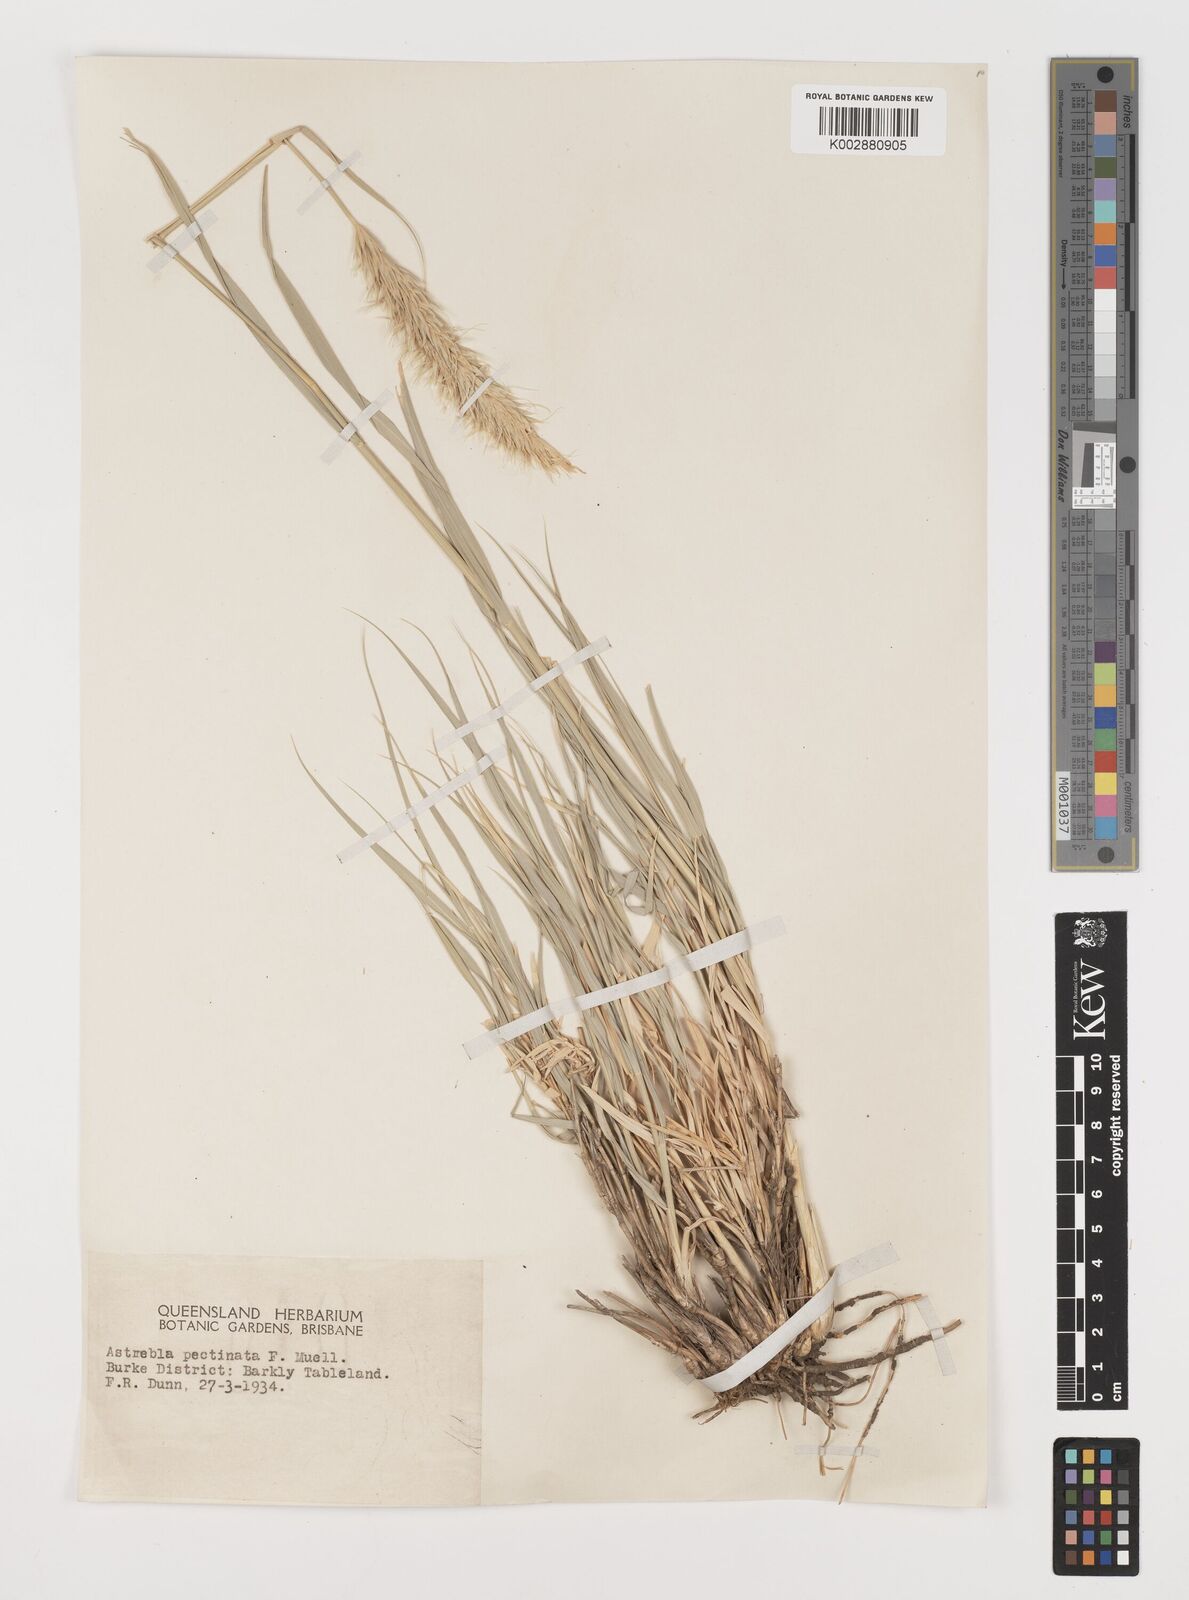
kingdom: Plantae
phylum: Tracheophyta
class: Liliopsida
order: Poales
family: Poaceae
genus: Astrebla
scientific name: Astrebla pectinata
